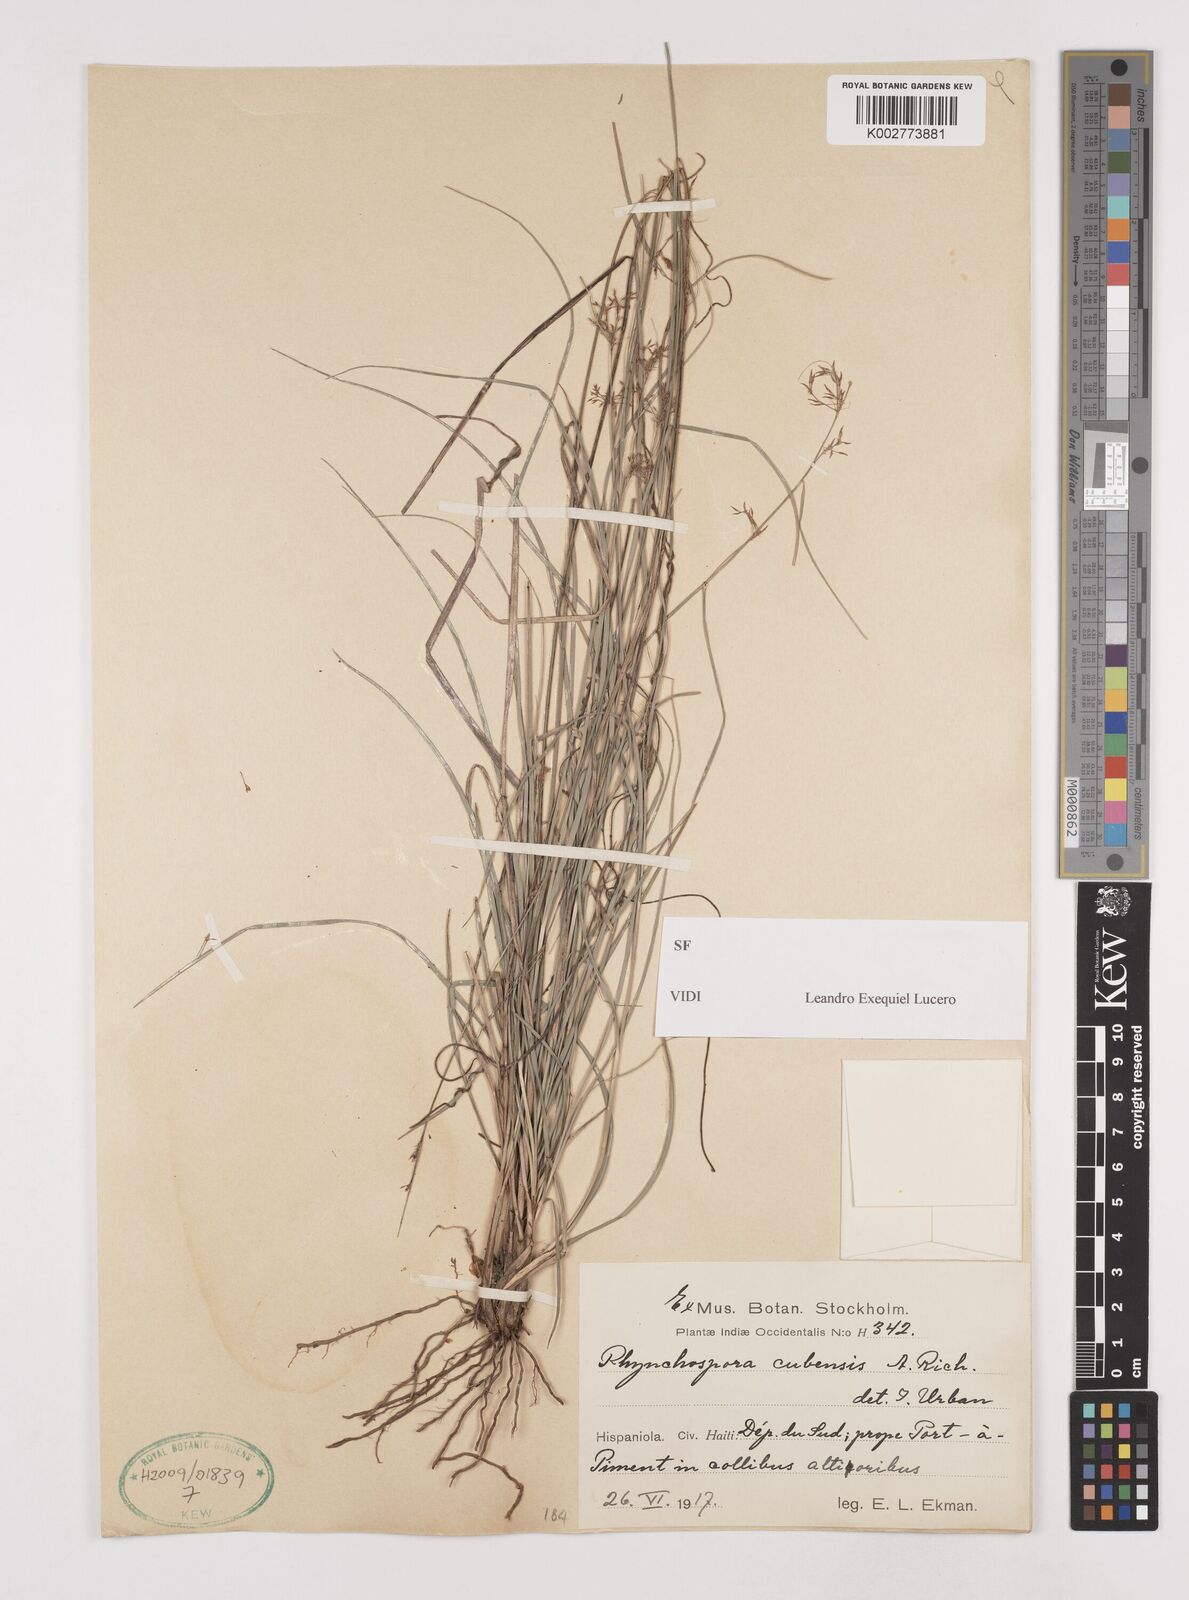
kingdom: Plantae
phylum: Tracheophyta
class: Liliopsida
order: Poales
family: Cyperaceae
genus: Rhynchospora
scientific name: Rhynchospora cubensis
